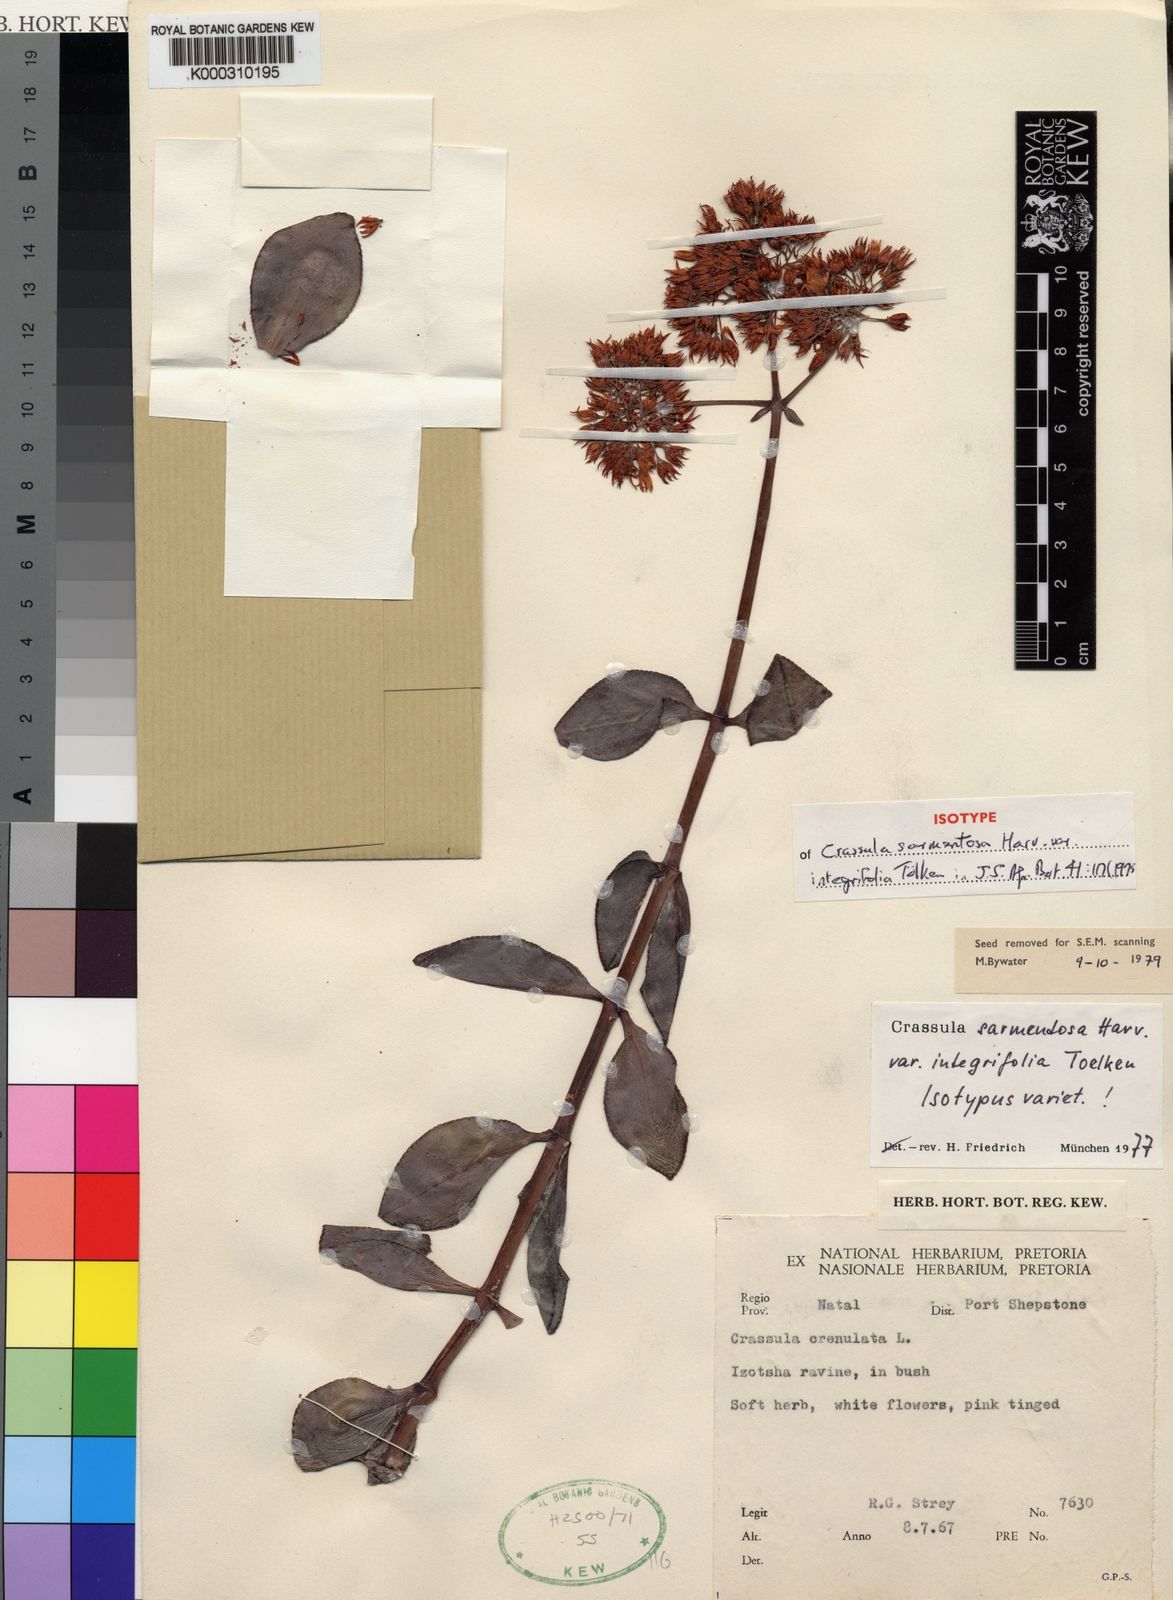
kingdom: Plantae
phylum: Tracheophyta
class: Magnoliopsida
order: Saxifragales
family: Crassulaceae
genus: Crassula
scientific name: Crassula sarmentosa
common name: Jade-tree
